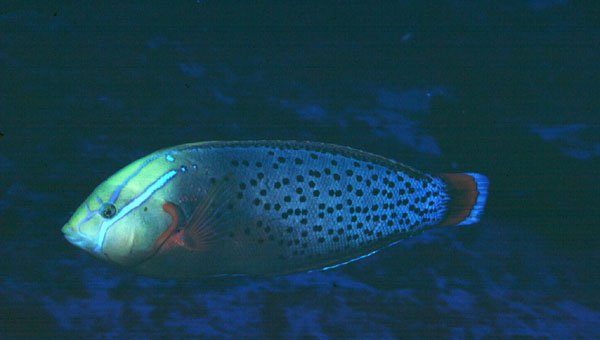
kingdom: Animalia
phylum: Chordata
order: Perciformes
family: Labridae
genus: Coris
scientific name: Coris formosa
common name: Queen coris
